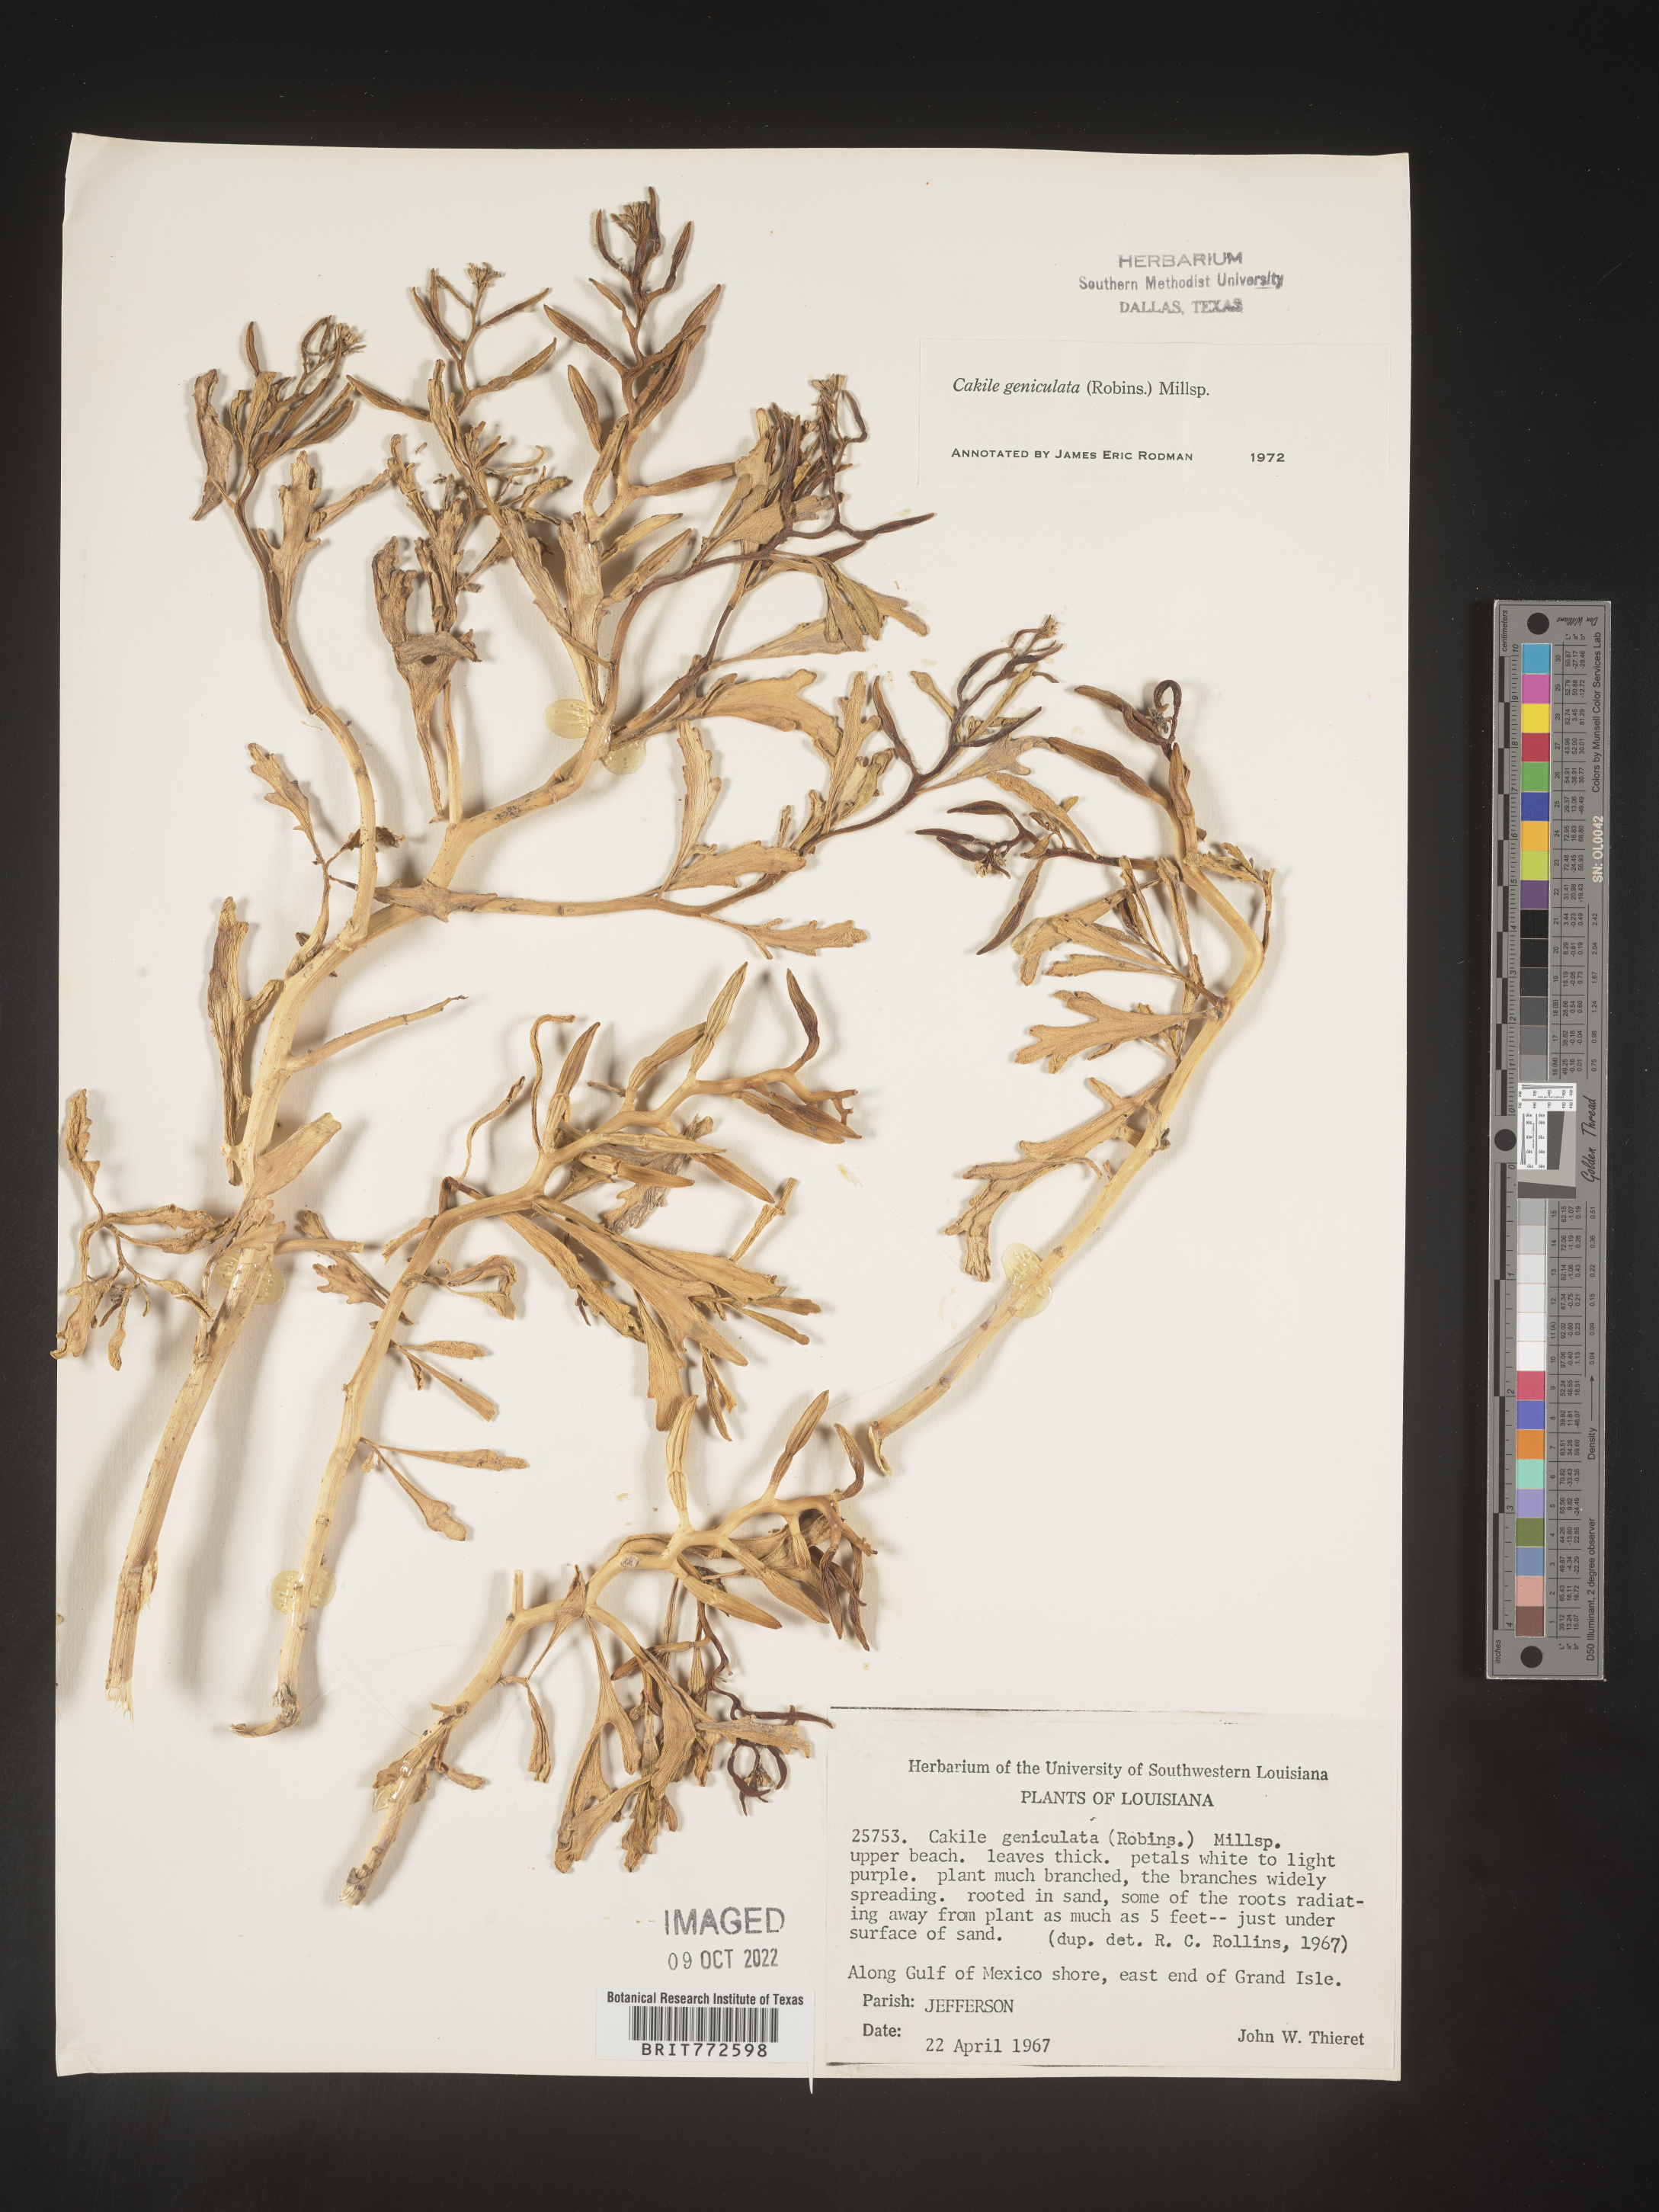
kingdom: Plantae
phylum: Tracheophyta
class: Magnoliopsida
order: Brassicales
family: Brassicaceae
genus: Cakile
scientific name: Cakile geniculata
